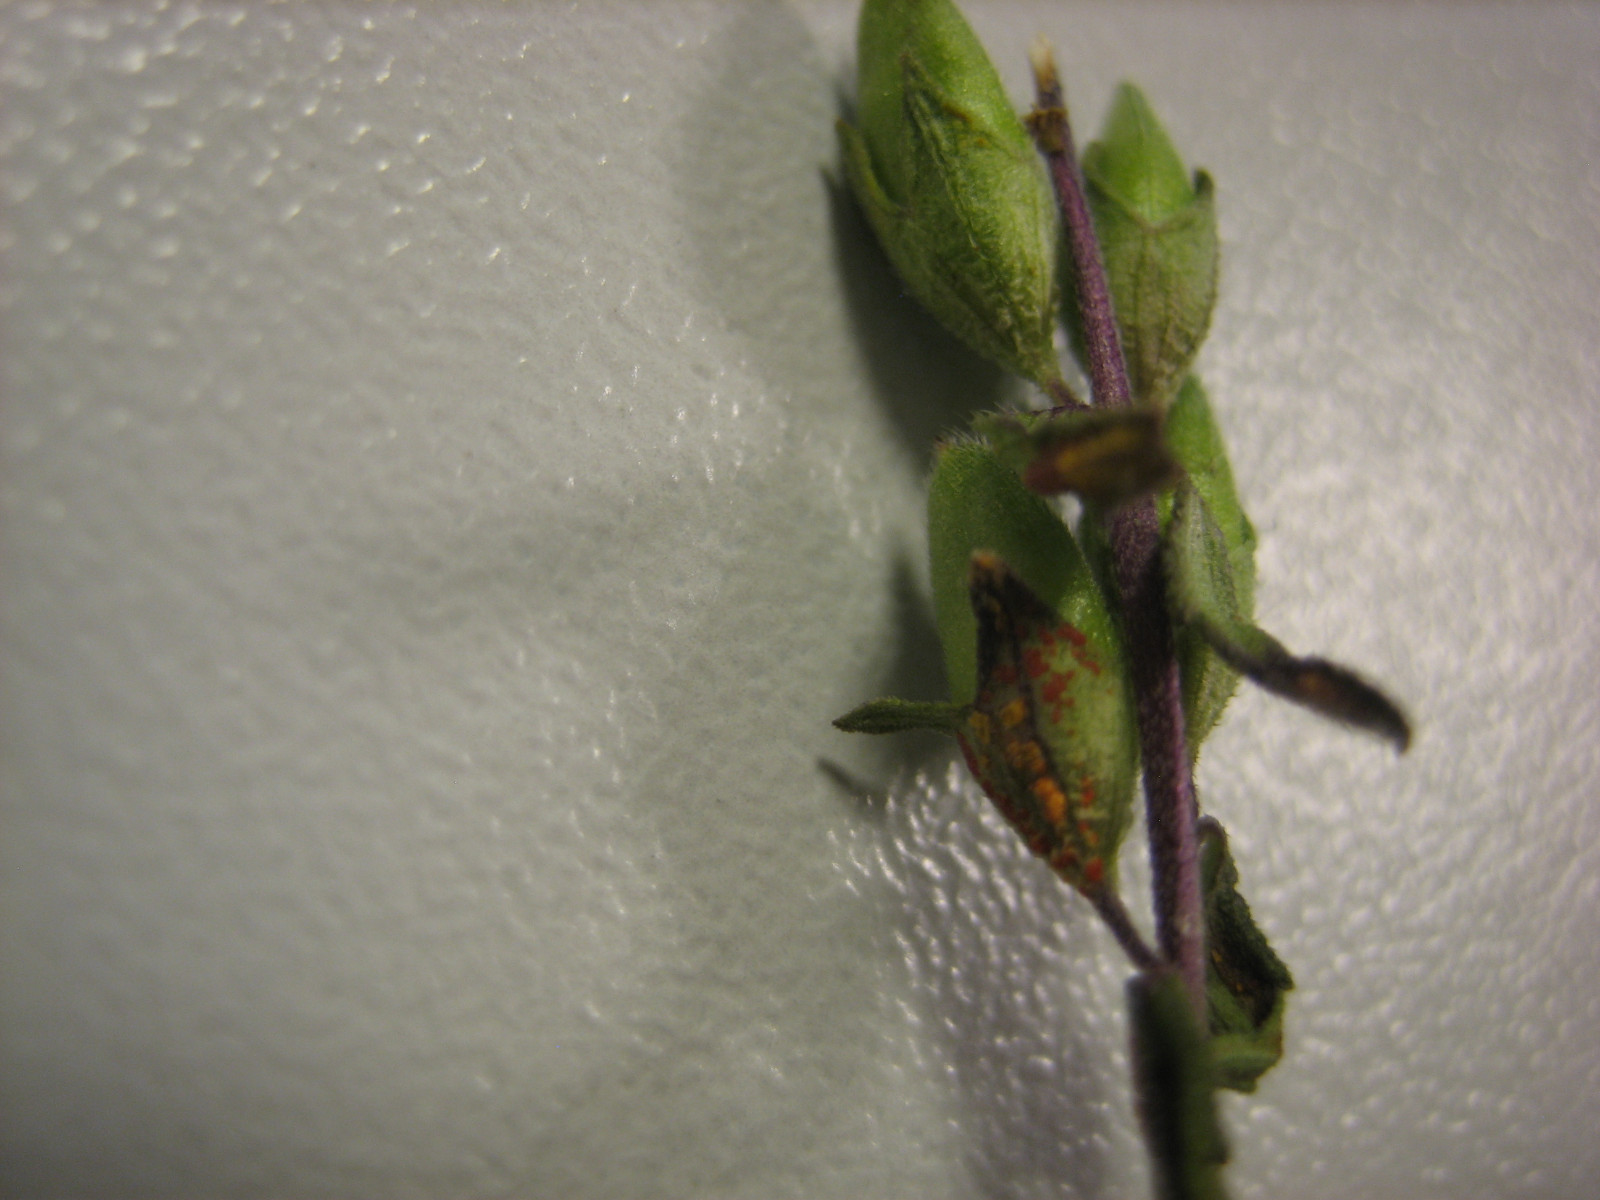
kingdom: Fungi
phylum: Basidiomycota
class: Pucciniomycetes
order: Pucciniales
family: Coleosporiaceae
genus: Coleosporium
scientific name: Coleosporium tussilaginis
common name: almindelig fyrrenålerust
